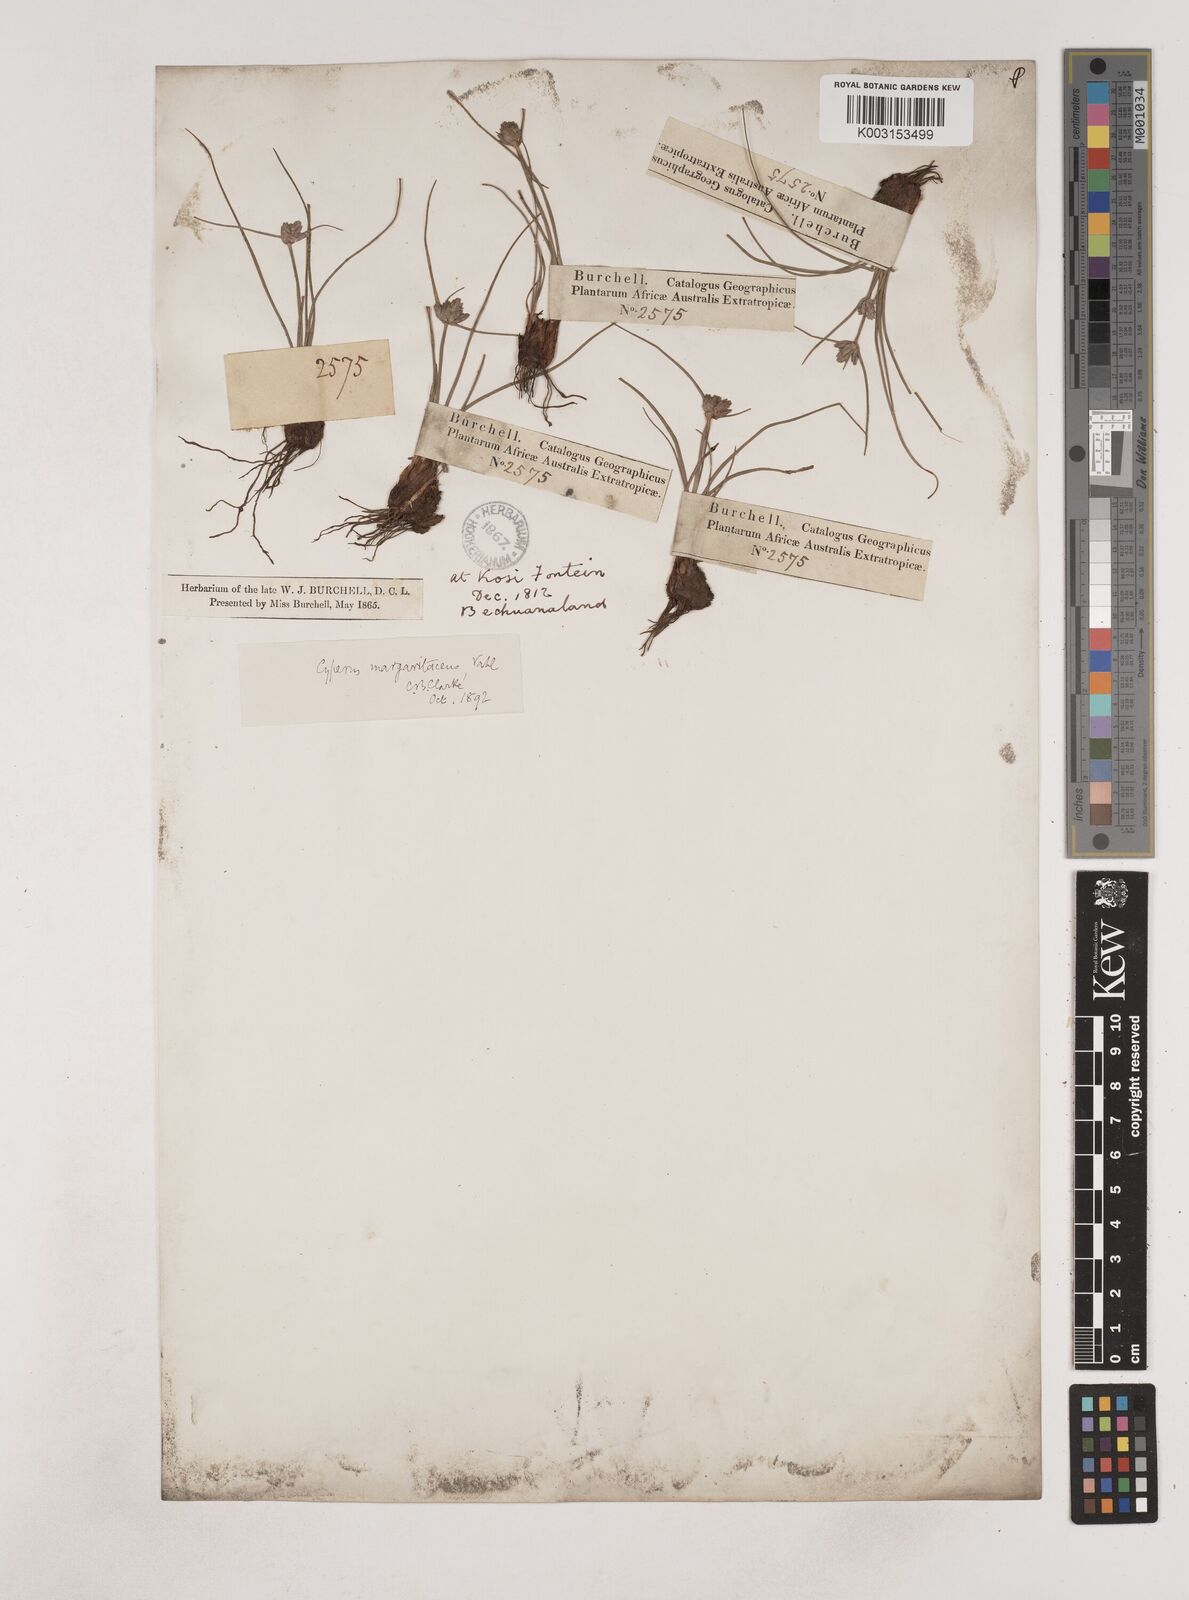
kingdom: Plantae
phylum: Tracheophyta
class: Liliopsida
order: Poales
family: Cyperaceae
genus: Cyperus
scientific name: Cyperus margaritaceus
